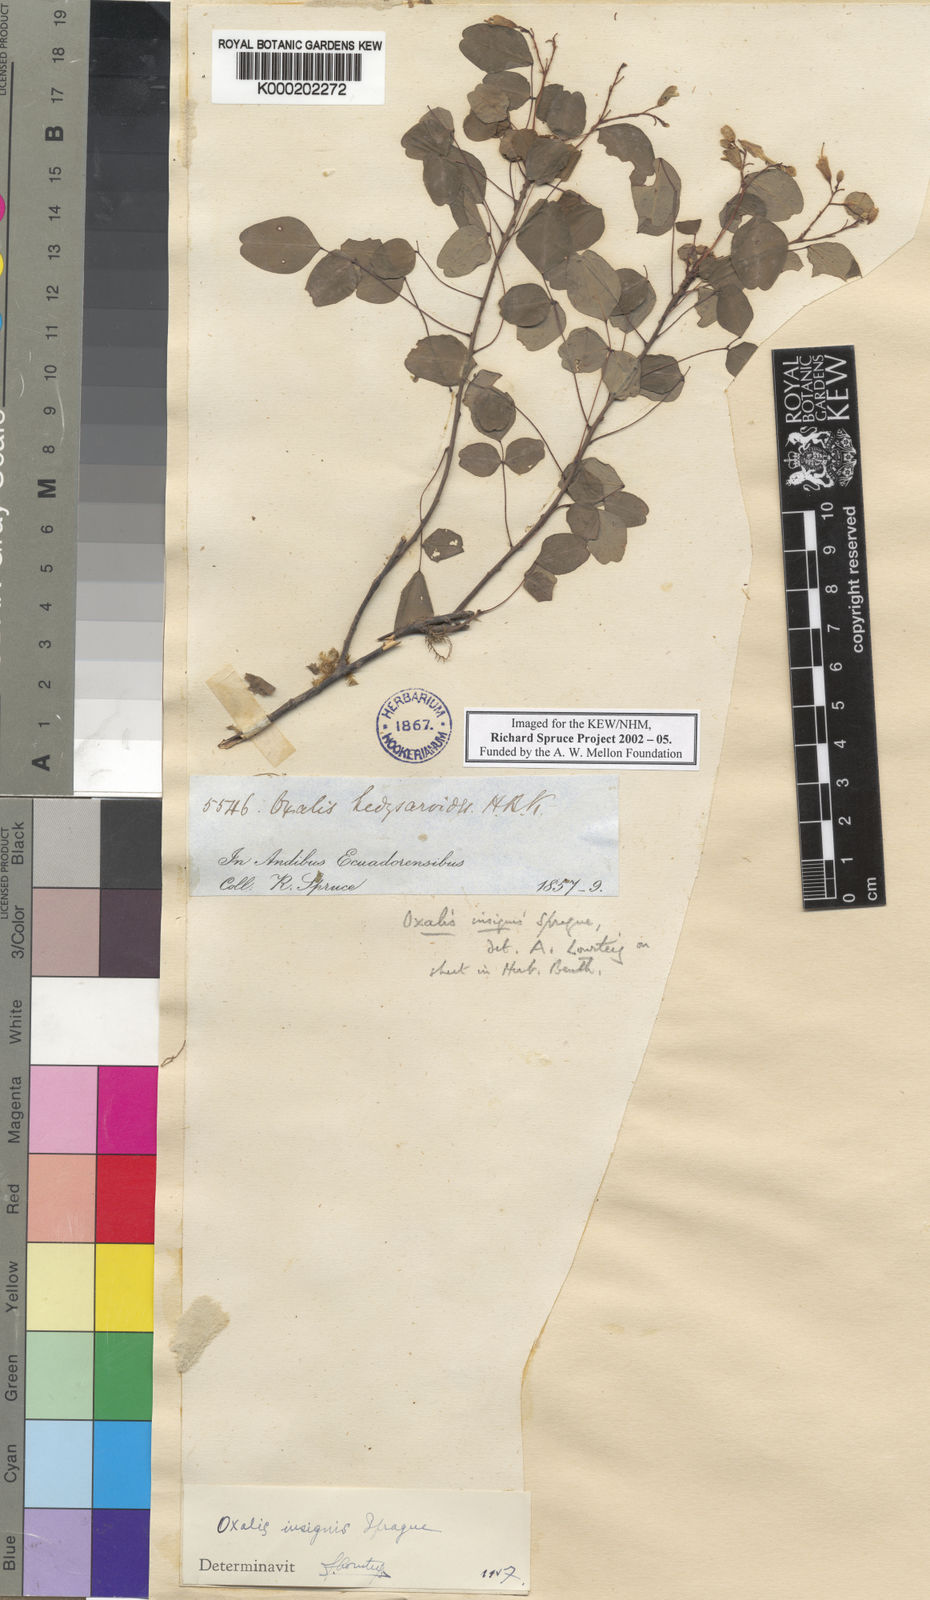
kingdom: Plantae
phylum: Tracheophyta
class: Magnoliopsida
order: Oxalidales
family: Oxalidaceae
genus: Oxalis
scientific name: Oxalis hedysaroides
